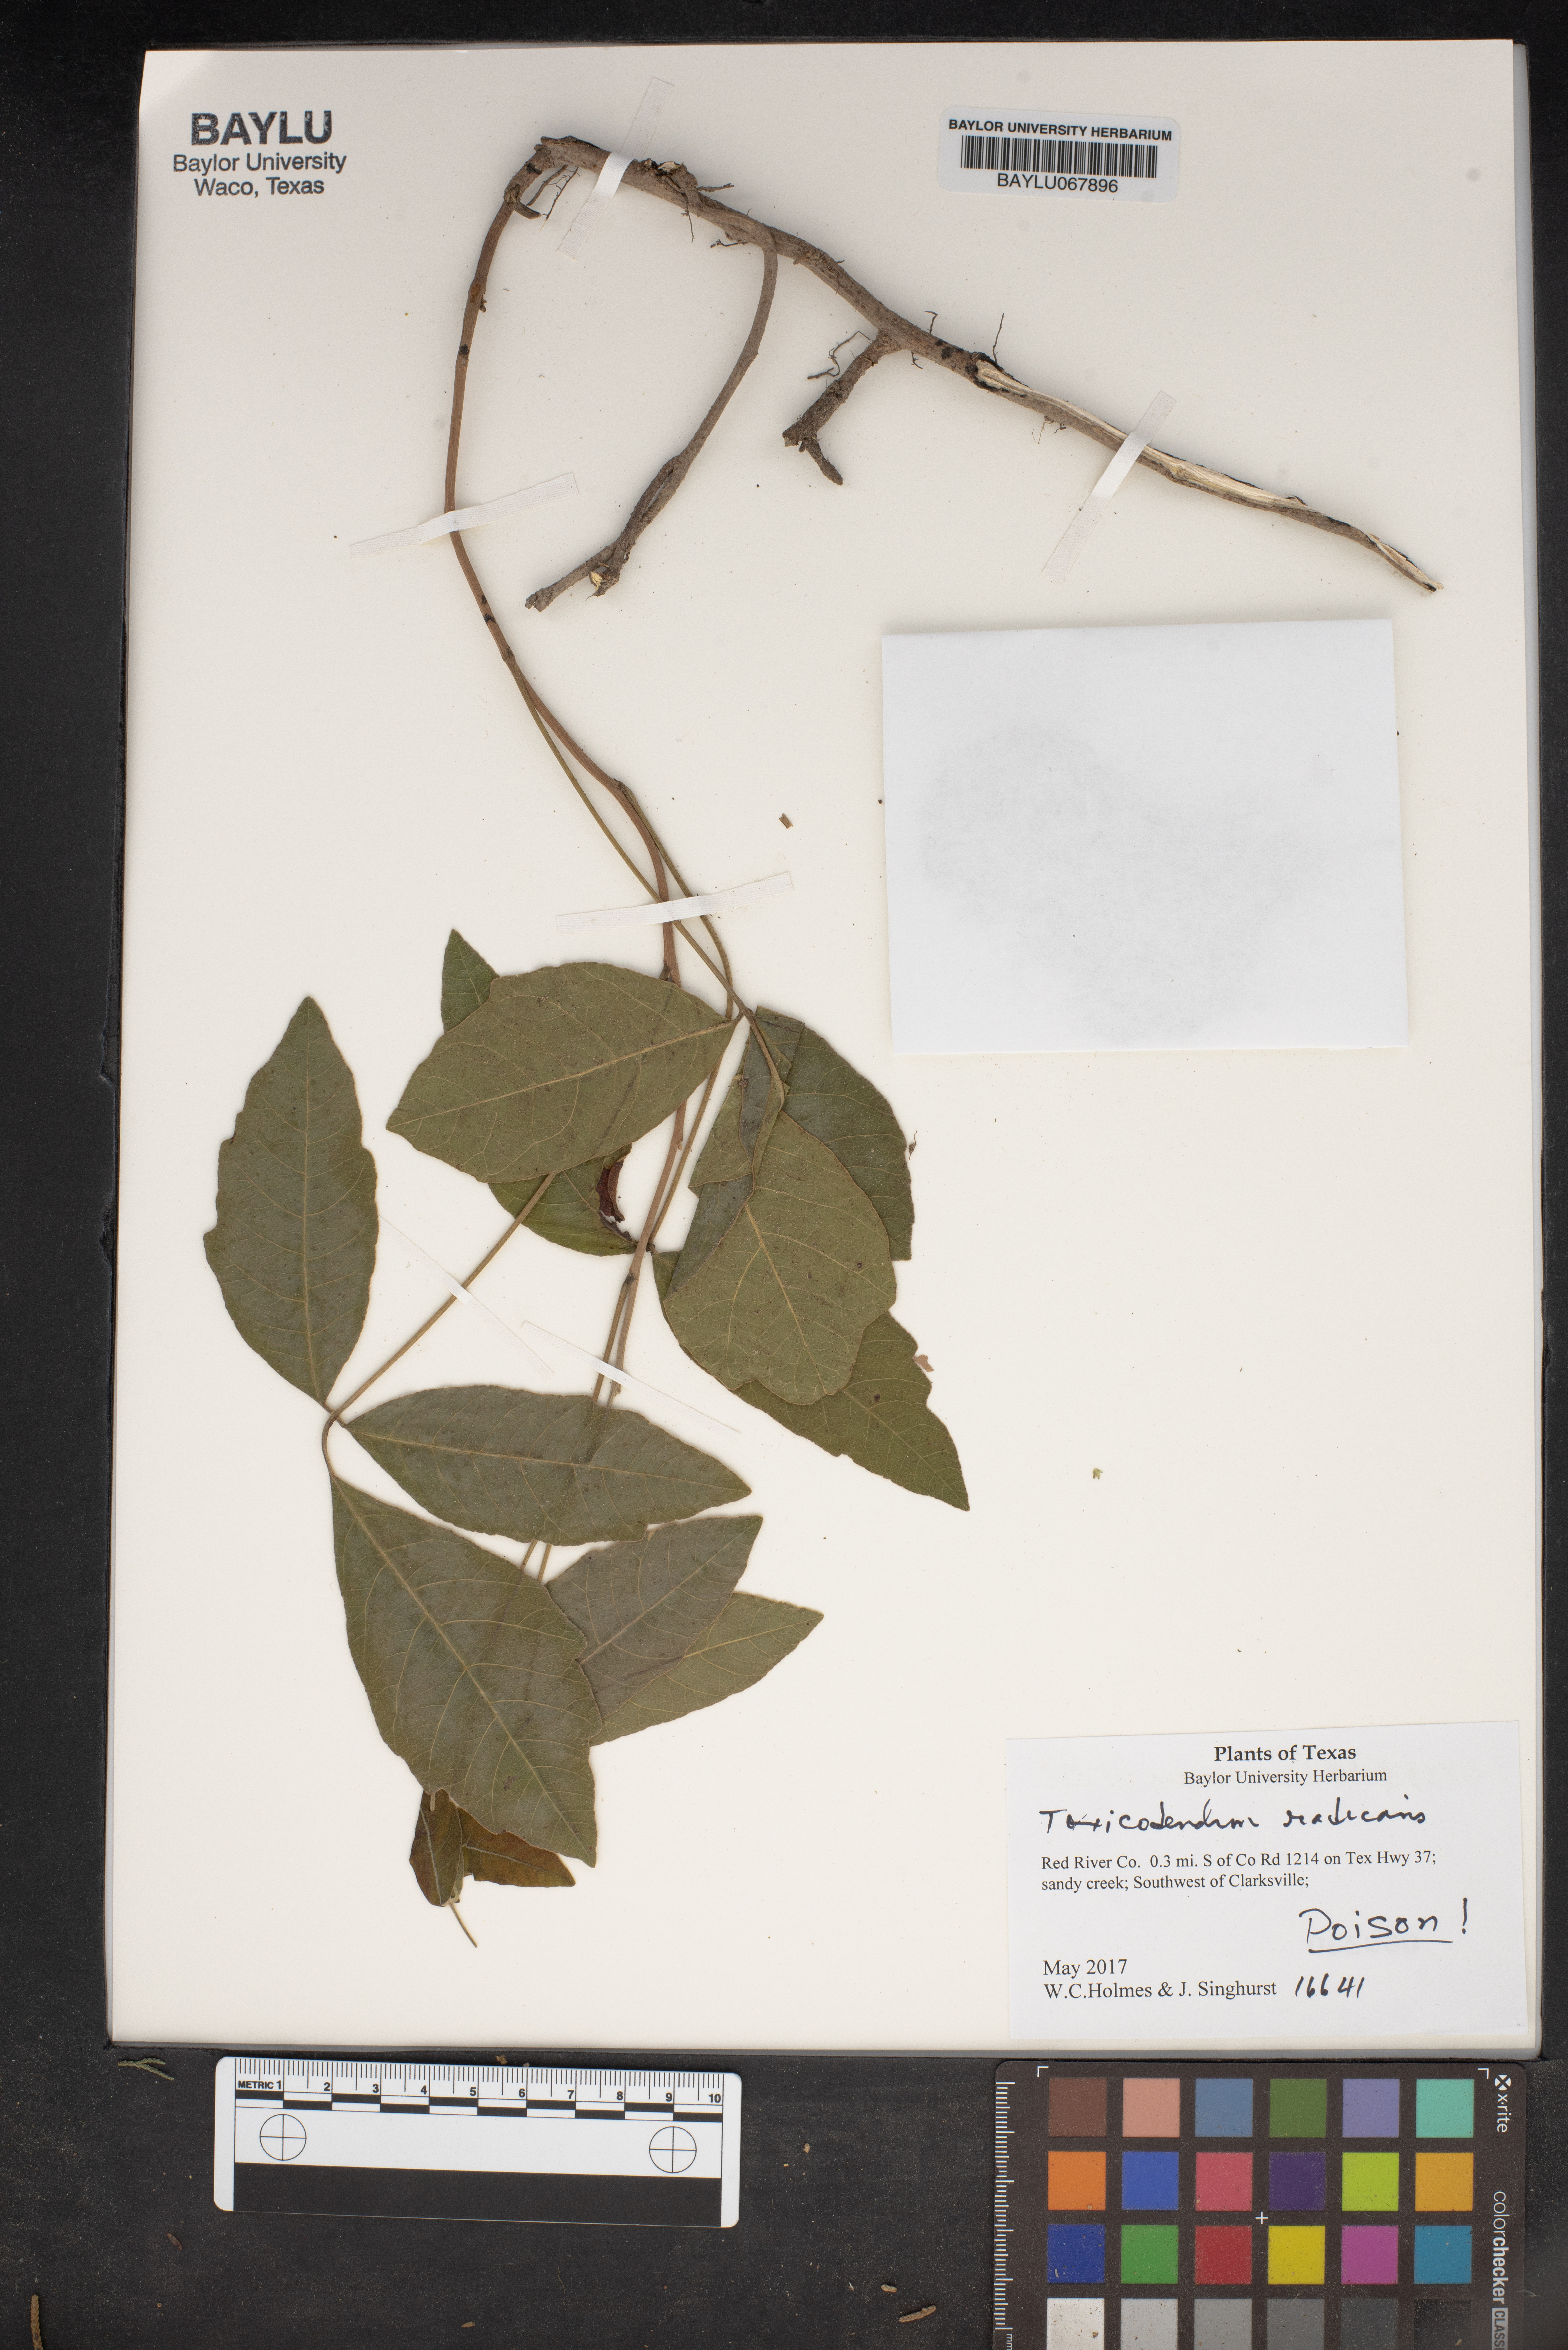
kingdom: Plantae
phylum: Tracheophyta
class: Magnoliopsida
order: Sapindales
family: Anacardiaceae
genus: Toxicodendron
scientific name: Toxicodendron radicans
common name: Poison ivy
